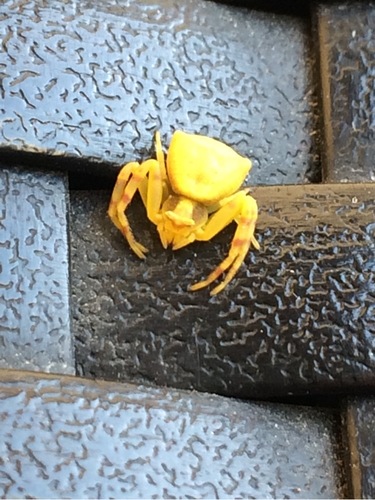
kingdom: Animalia
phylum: Arthropoda
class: Arachnida
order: Araneae
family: Thomisidae
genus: Thomisus
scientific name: Thomisus onustus
